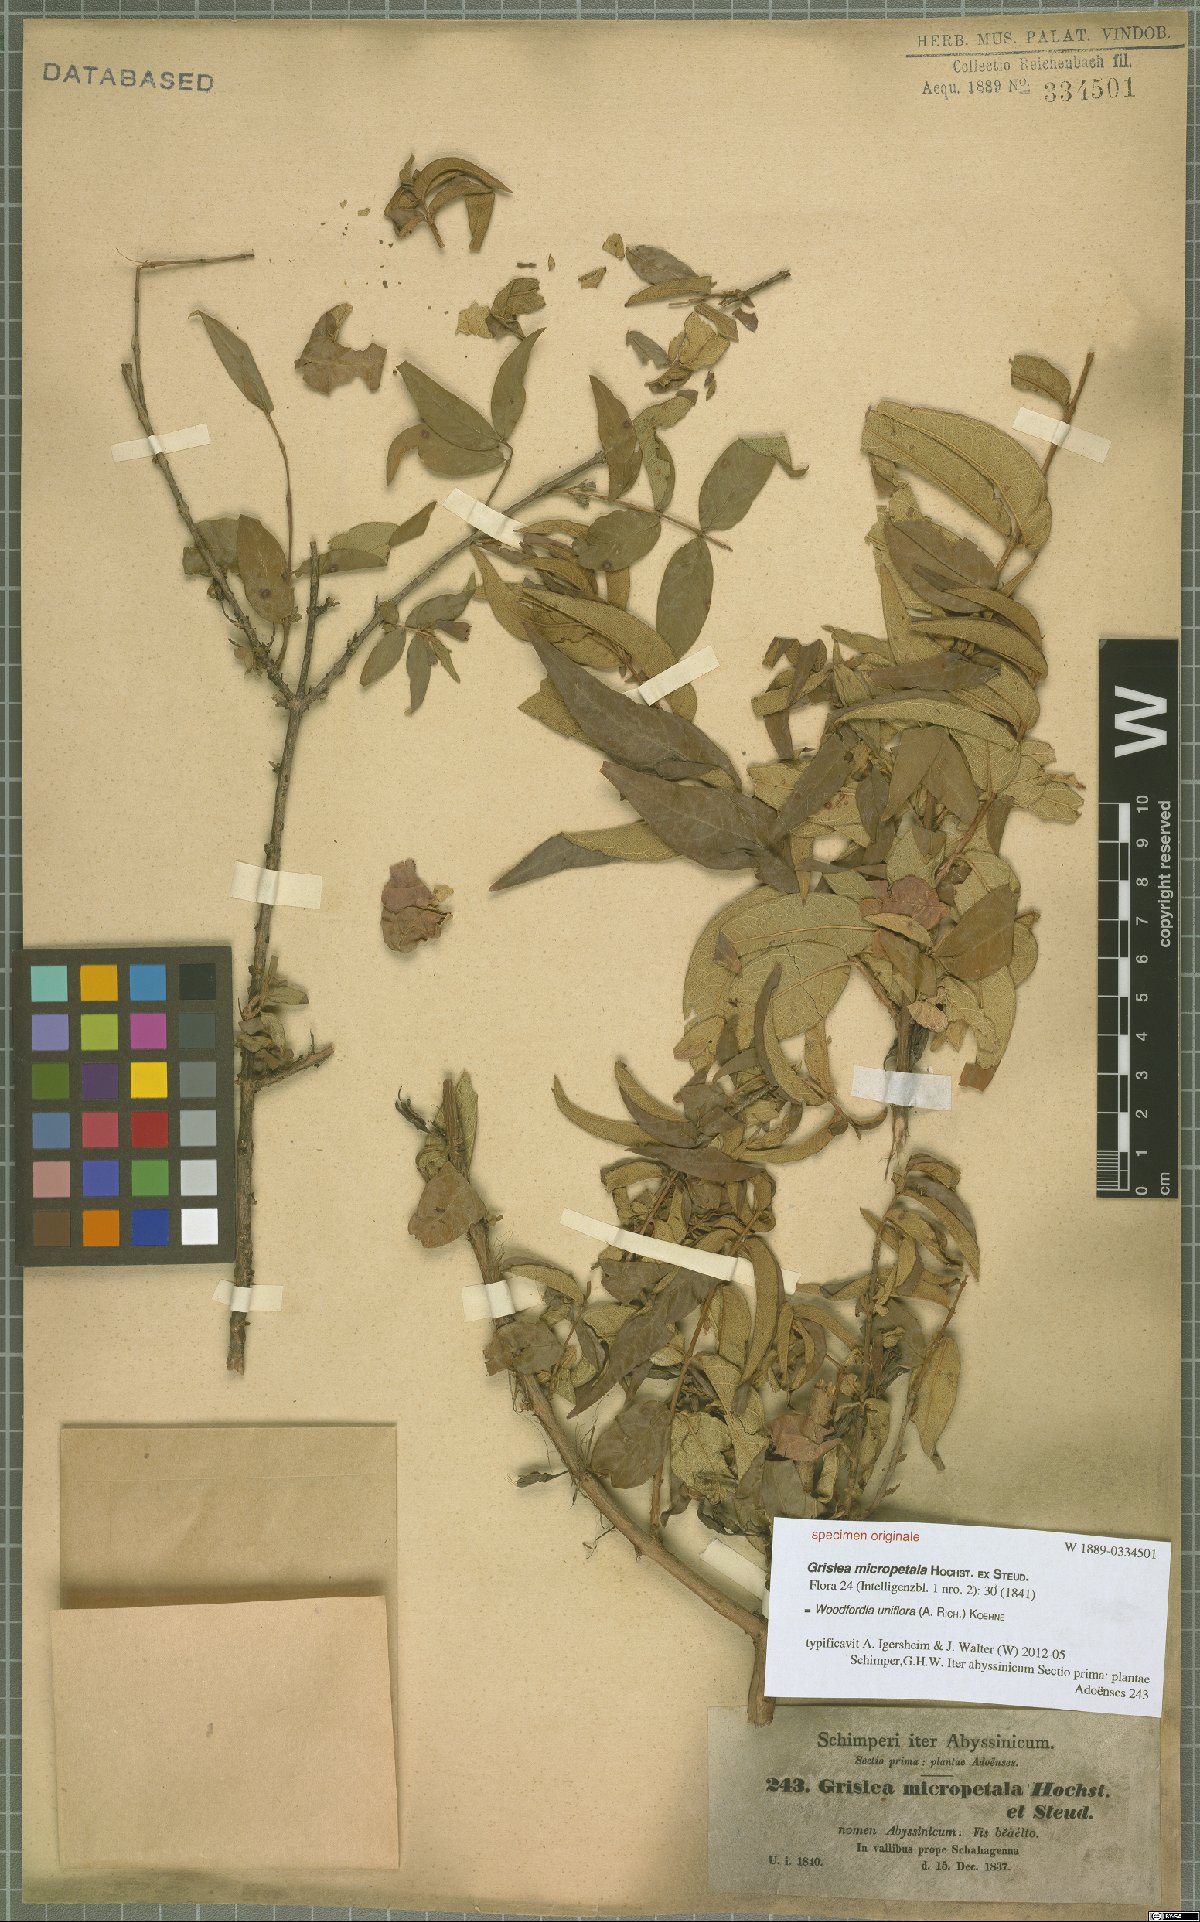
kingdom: Plantae
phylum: Tracheophyta
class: Magnoliopsida
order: Myrtales
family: Lythraceae
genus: Woodfordia
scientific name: Woodfordia uniflora
